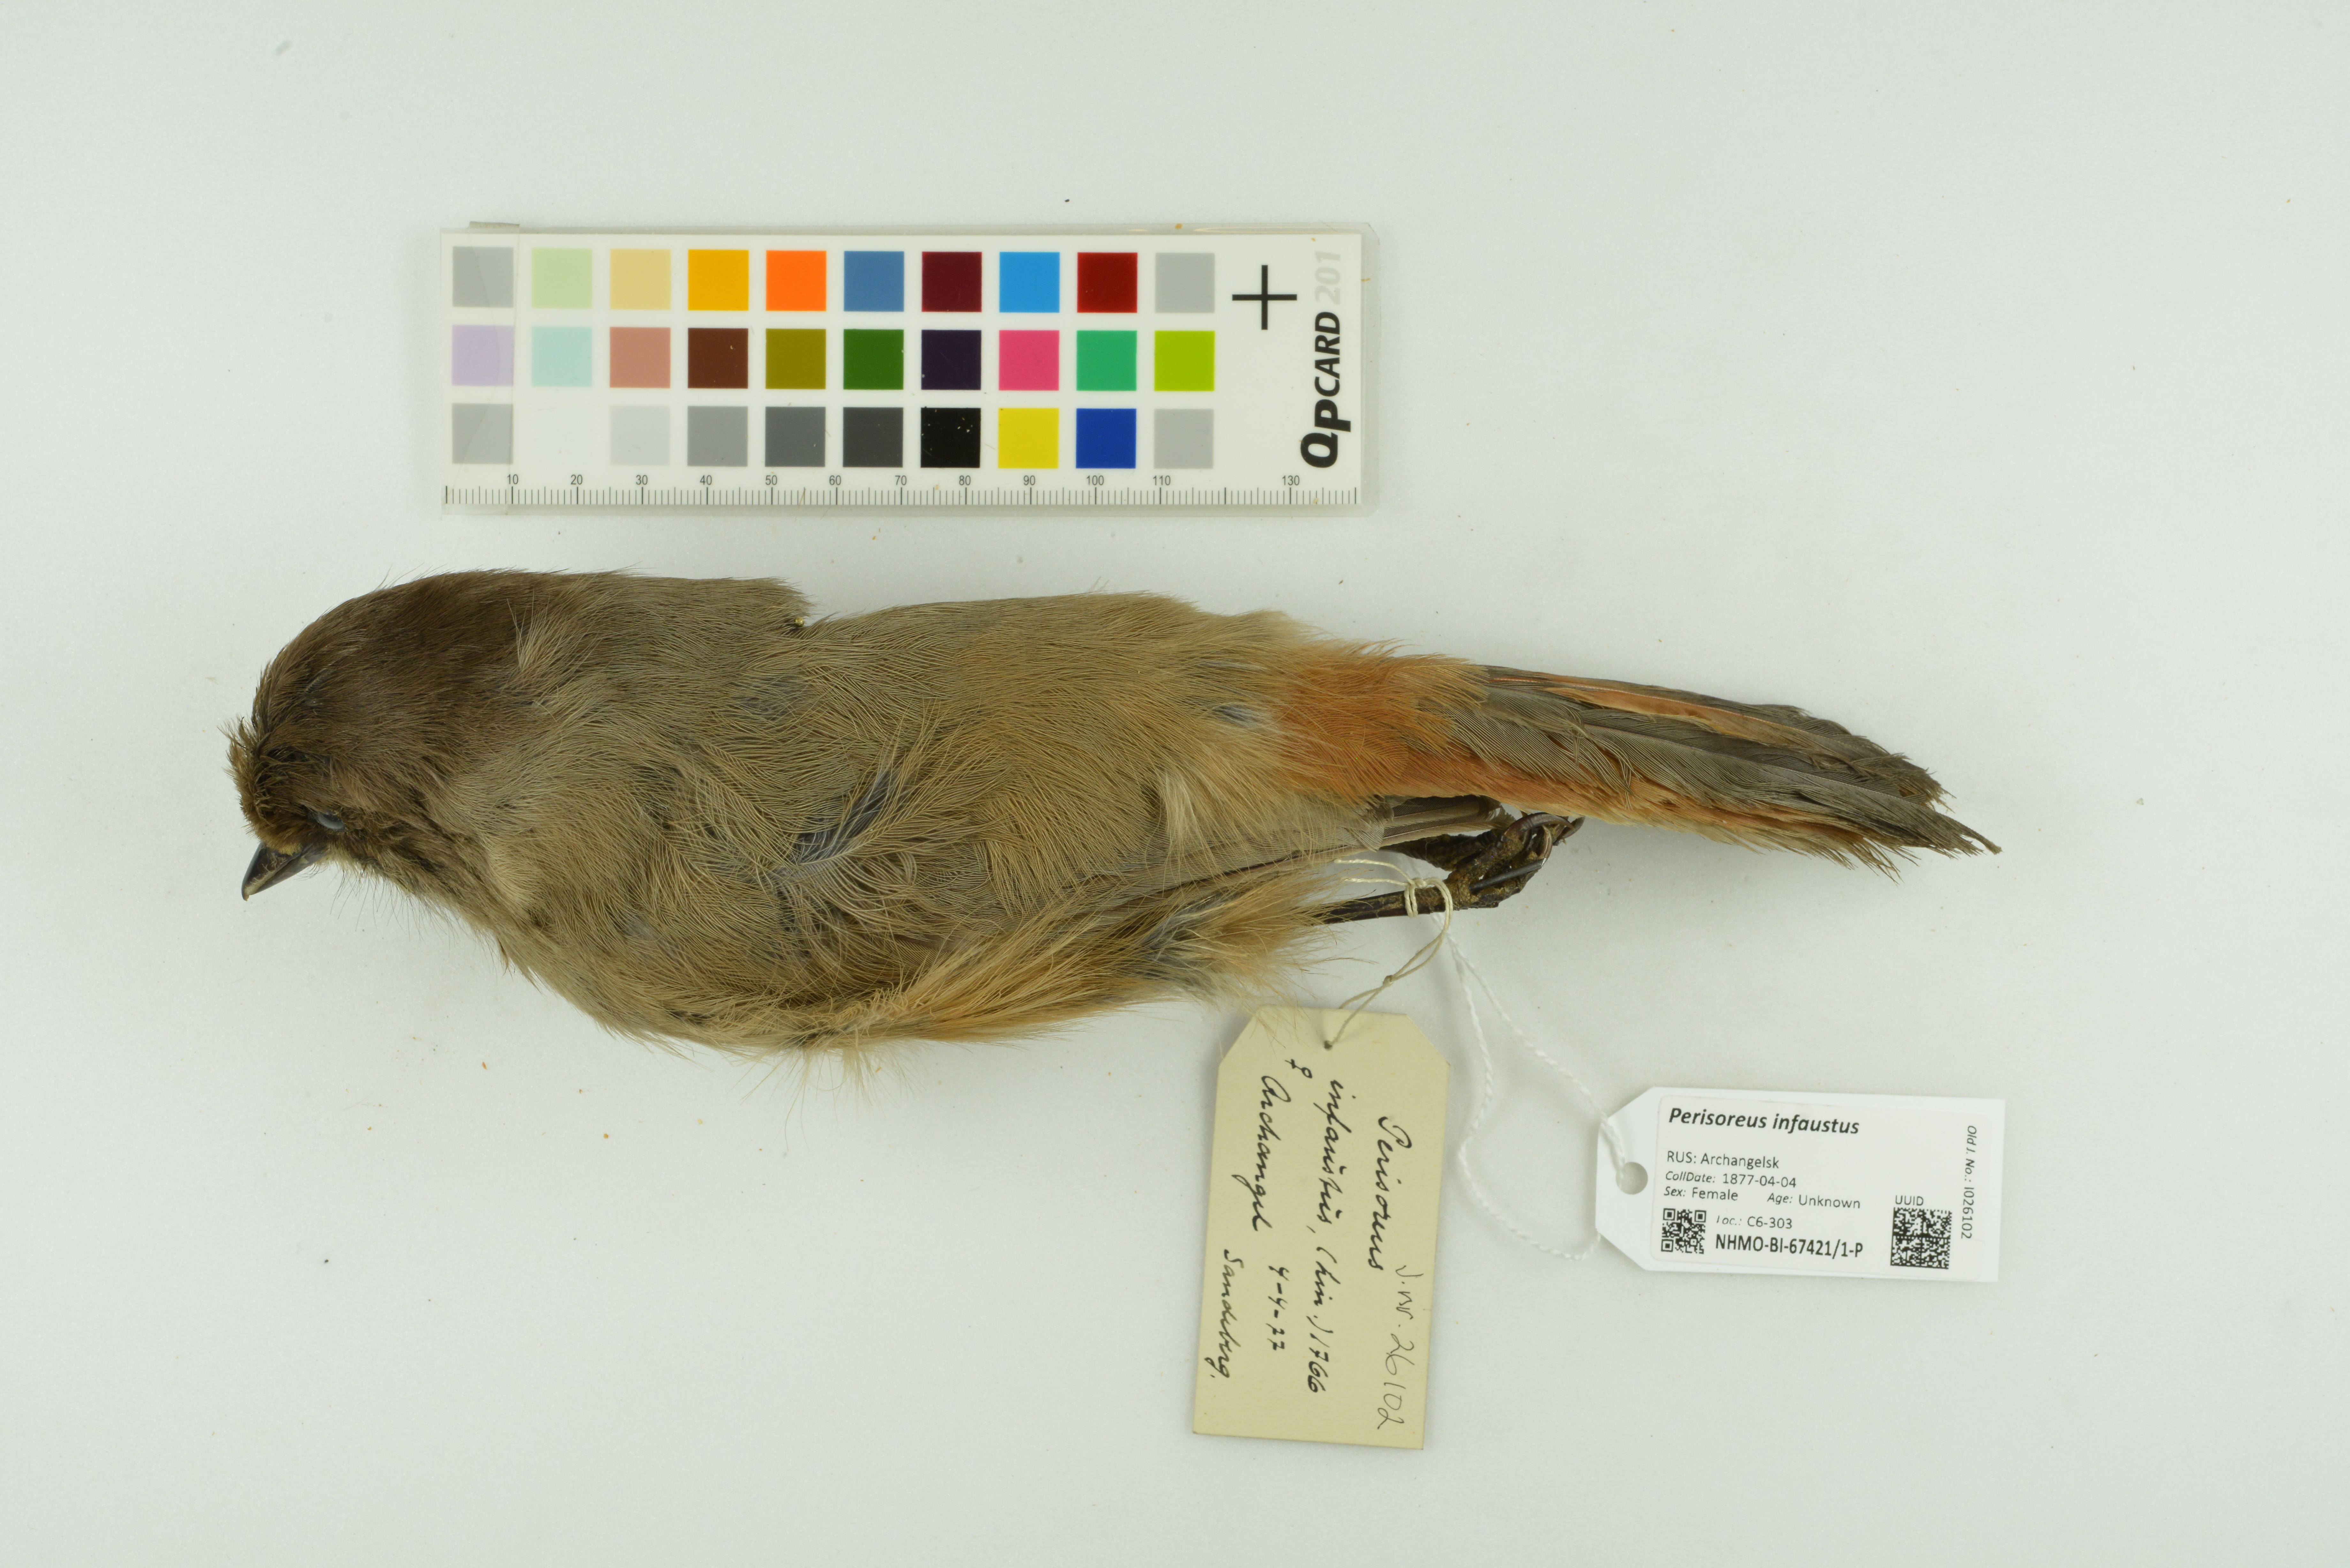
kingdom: Animalia
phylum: Chordata
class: Aves
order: Passeriformes
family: Corvidae
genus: Perisoreus
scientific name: Perisoreus infaustus
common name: Siberian jay
